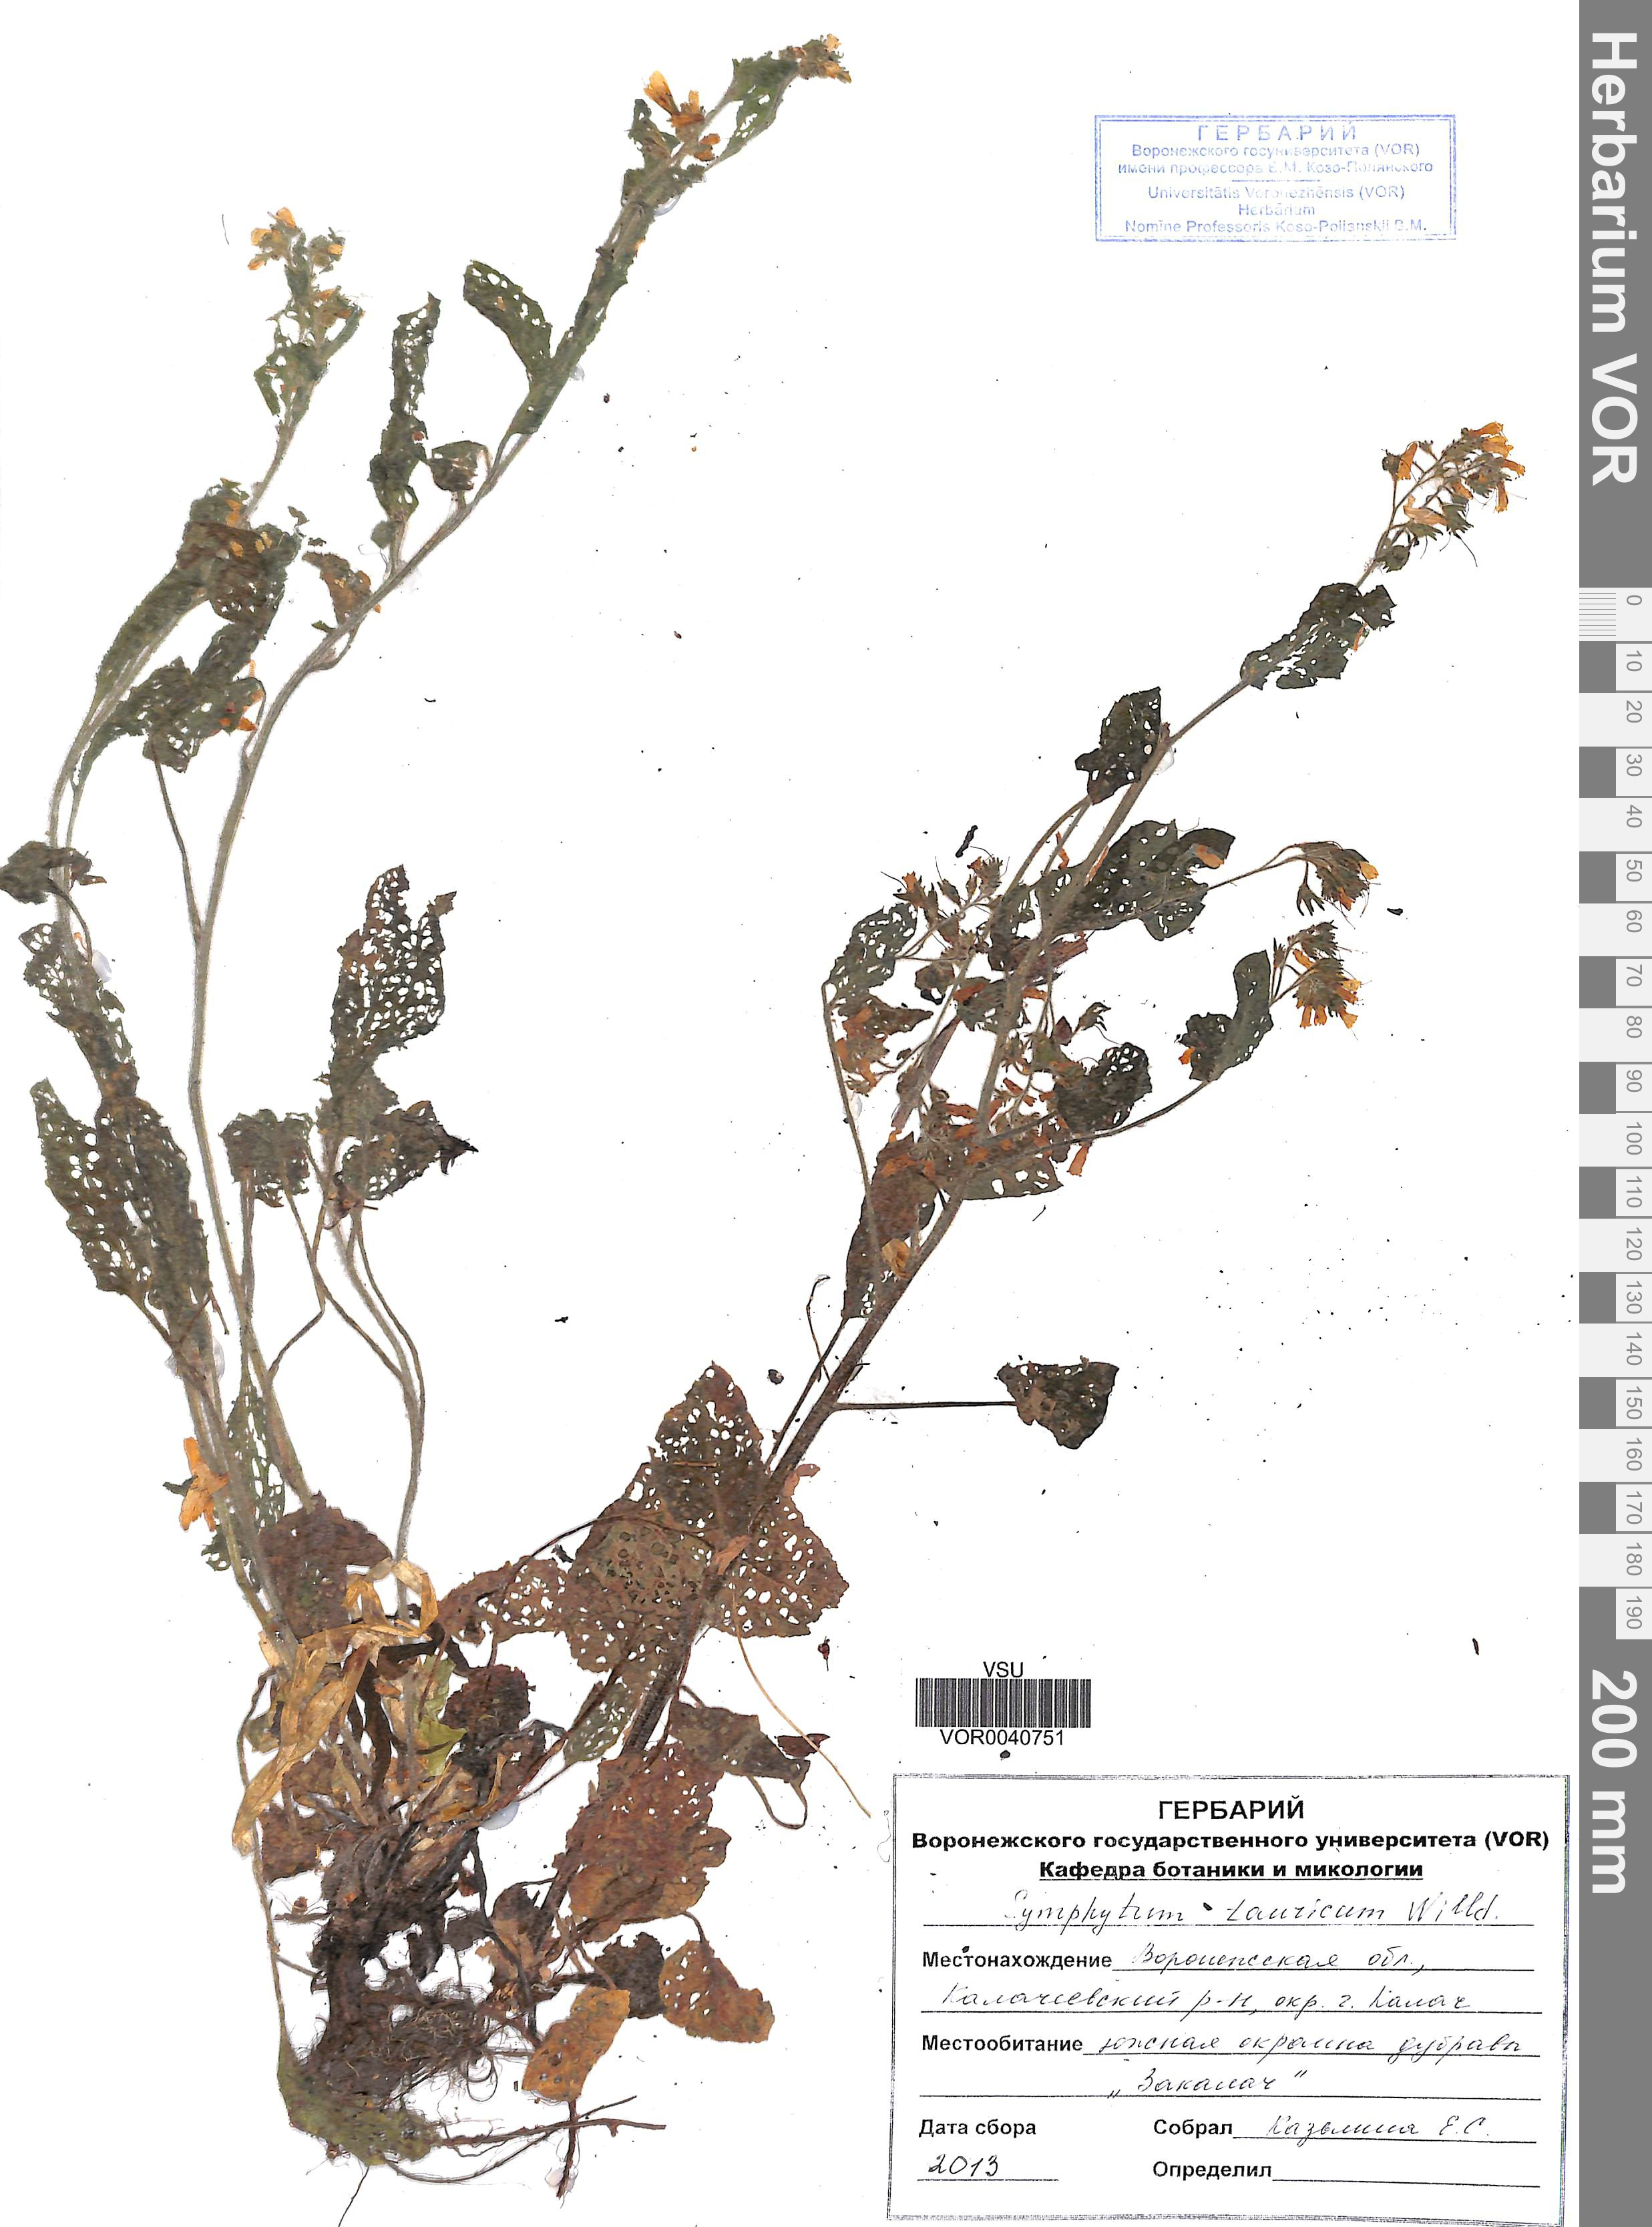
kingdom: Plantae
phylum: Tracheophyta
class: Magnoliopsida
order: Boraginales
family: Boraginaceae
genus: Symphytum
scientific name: Symphytum tauricum
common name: Crimean comfrey
